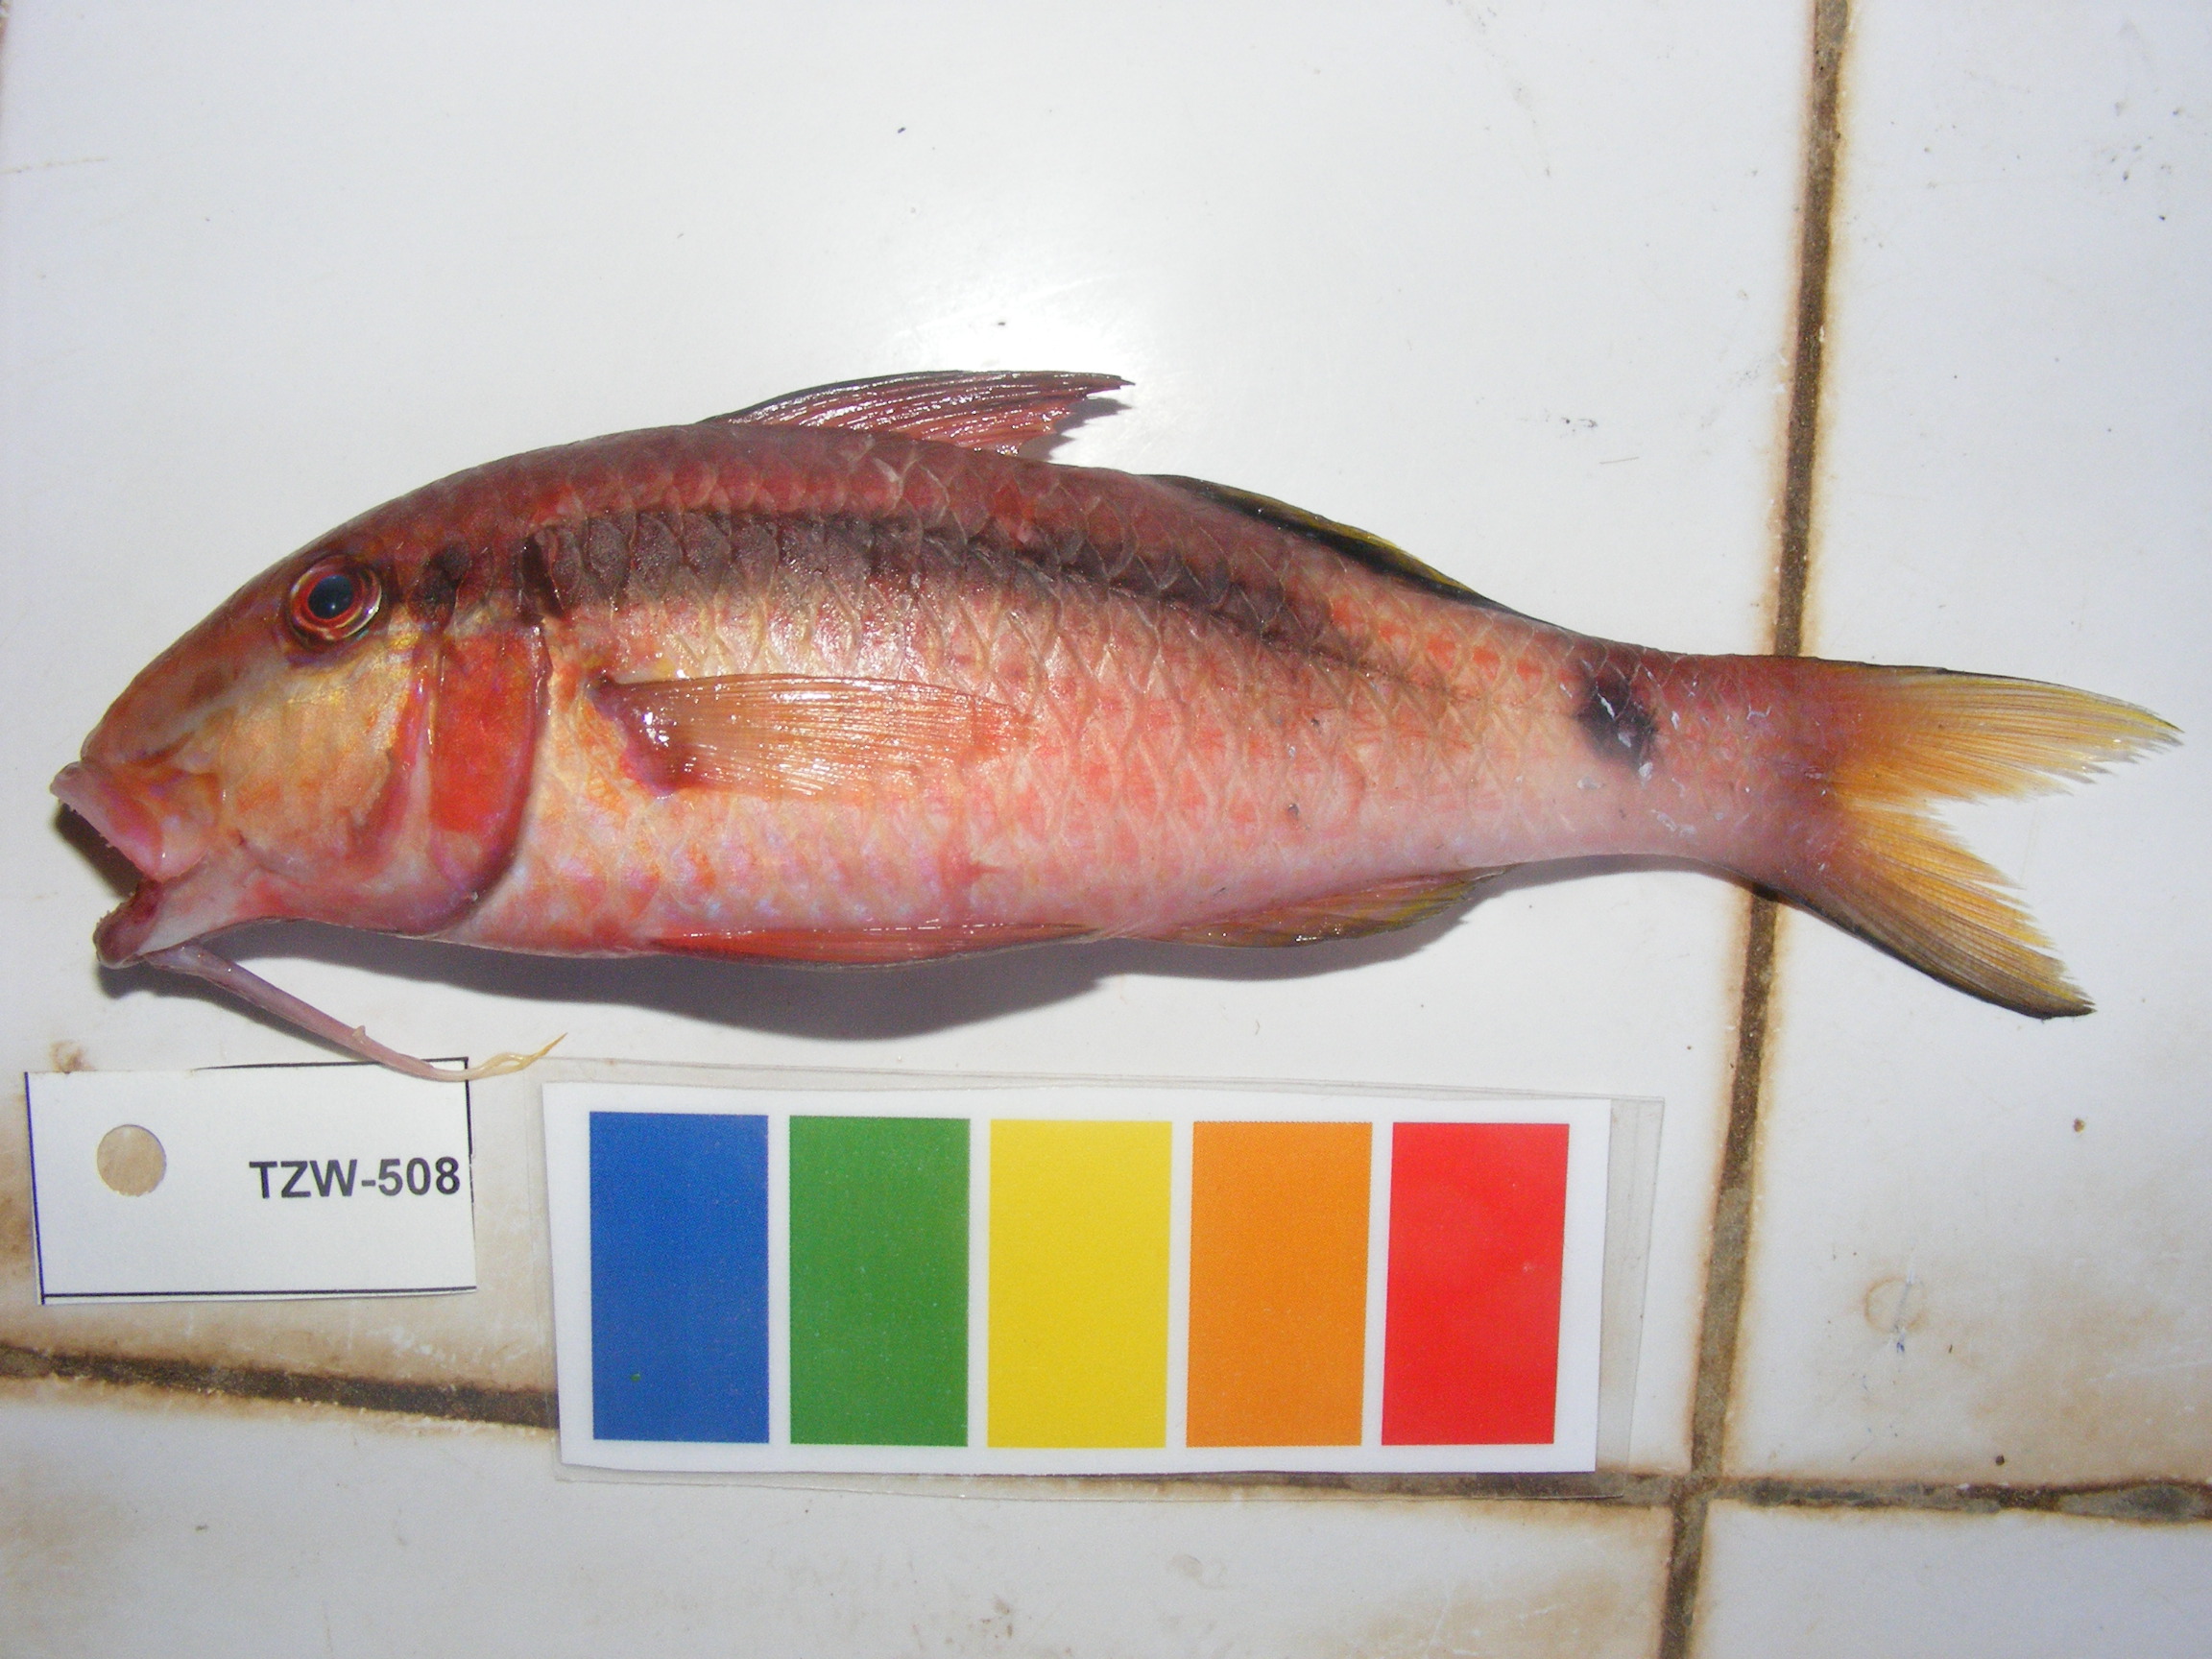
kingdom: Animalia
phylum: Chordata
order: Perciformes
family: Mullidae
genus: Parupeneus
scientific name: Parupeneus macronemus
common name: Long-barbel goatfish
